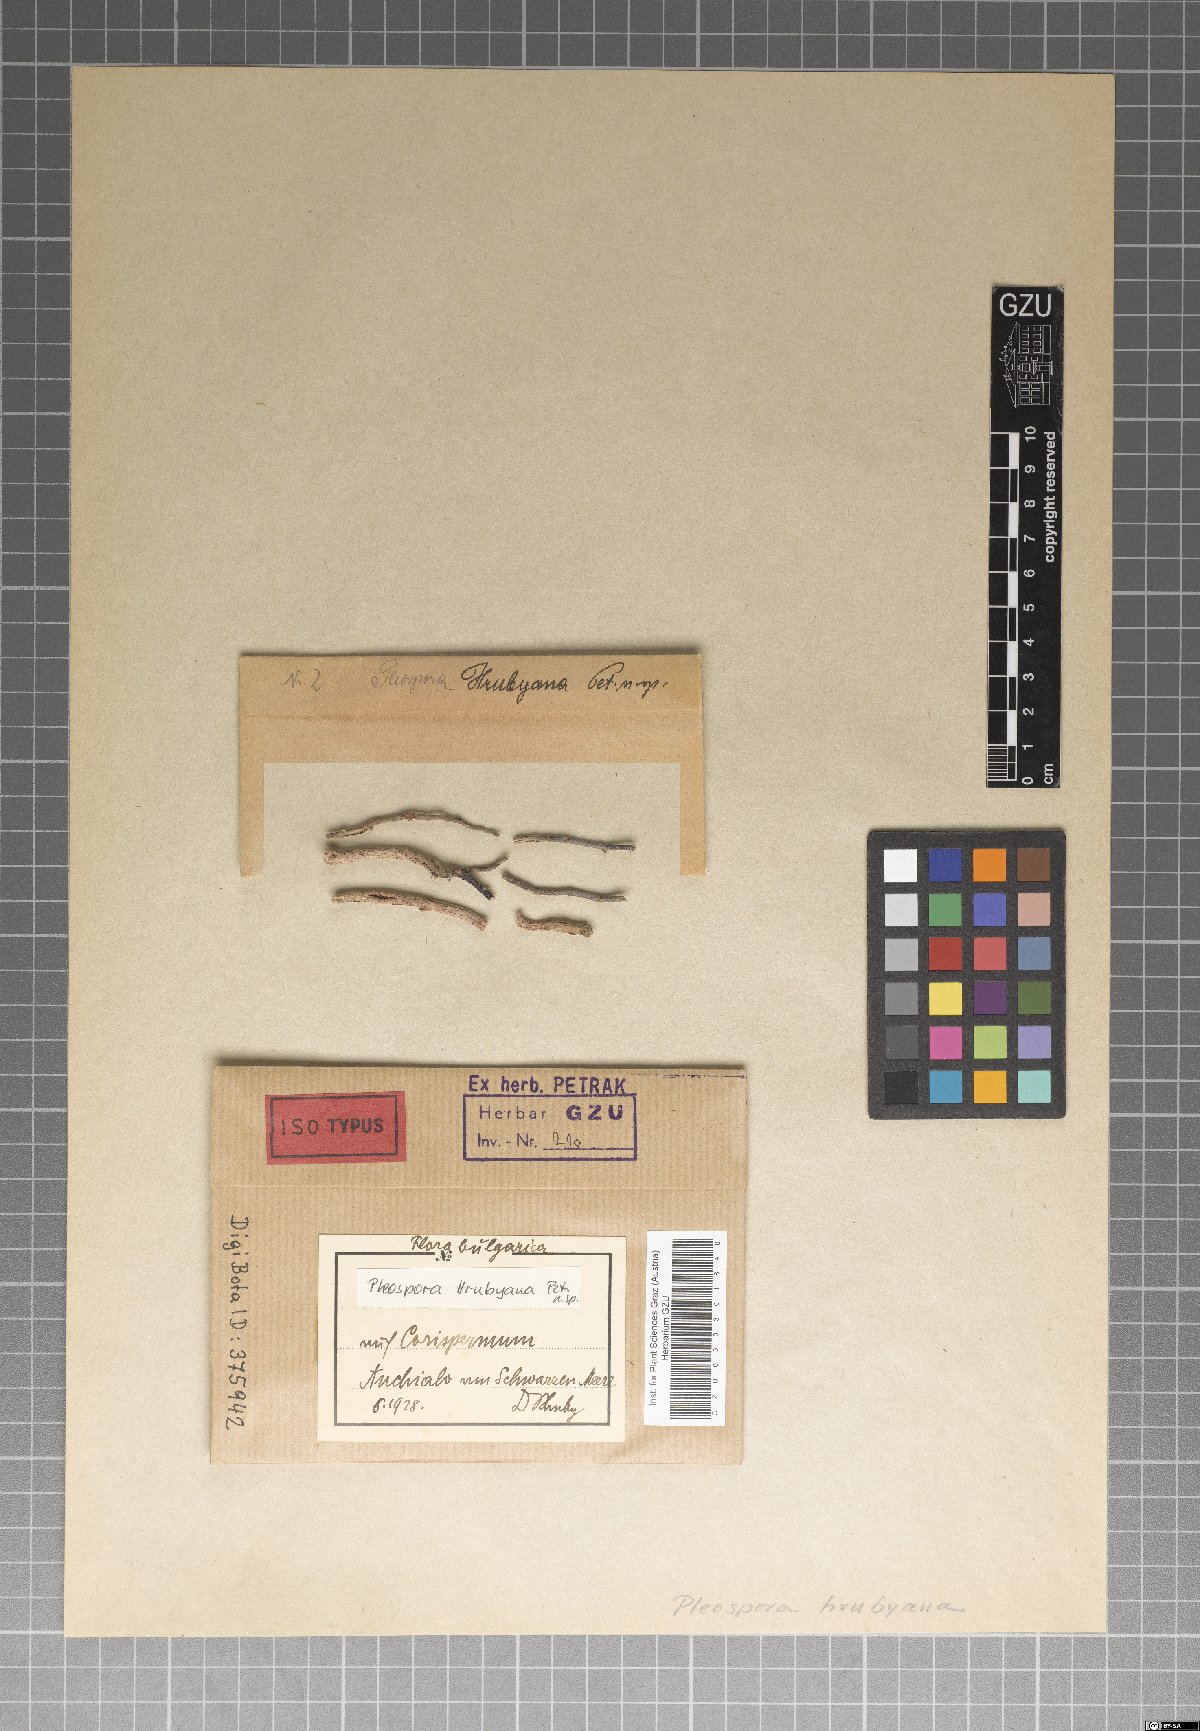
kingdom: Fungi
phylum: Ascomycota
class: Dothideomycetes
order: Pleosporales
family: Pleosporaceae
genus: Pleospora
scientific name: Pleospora hrubyana
